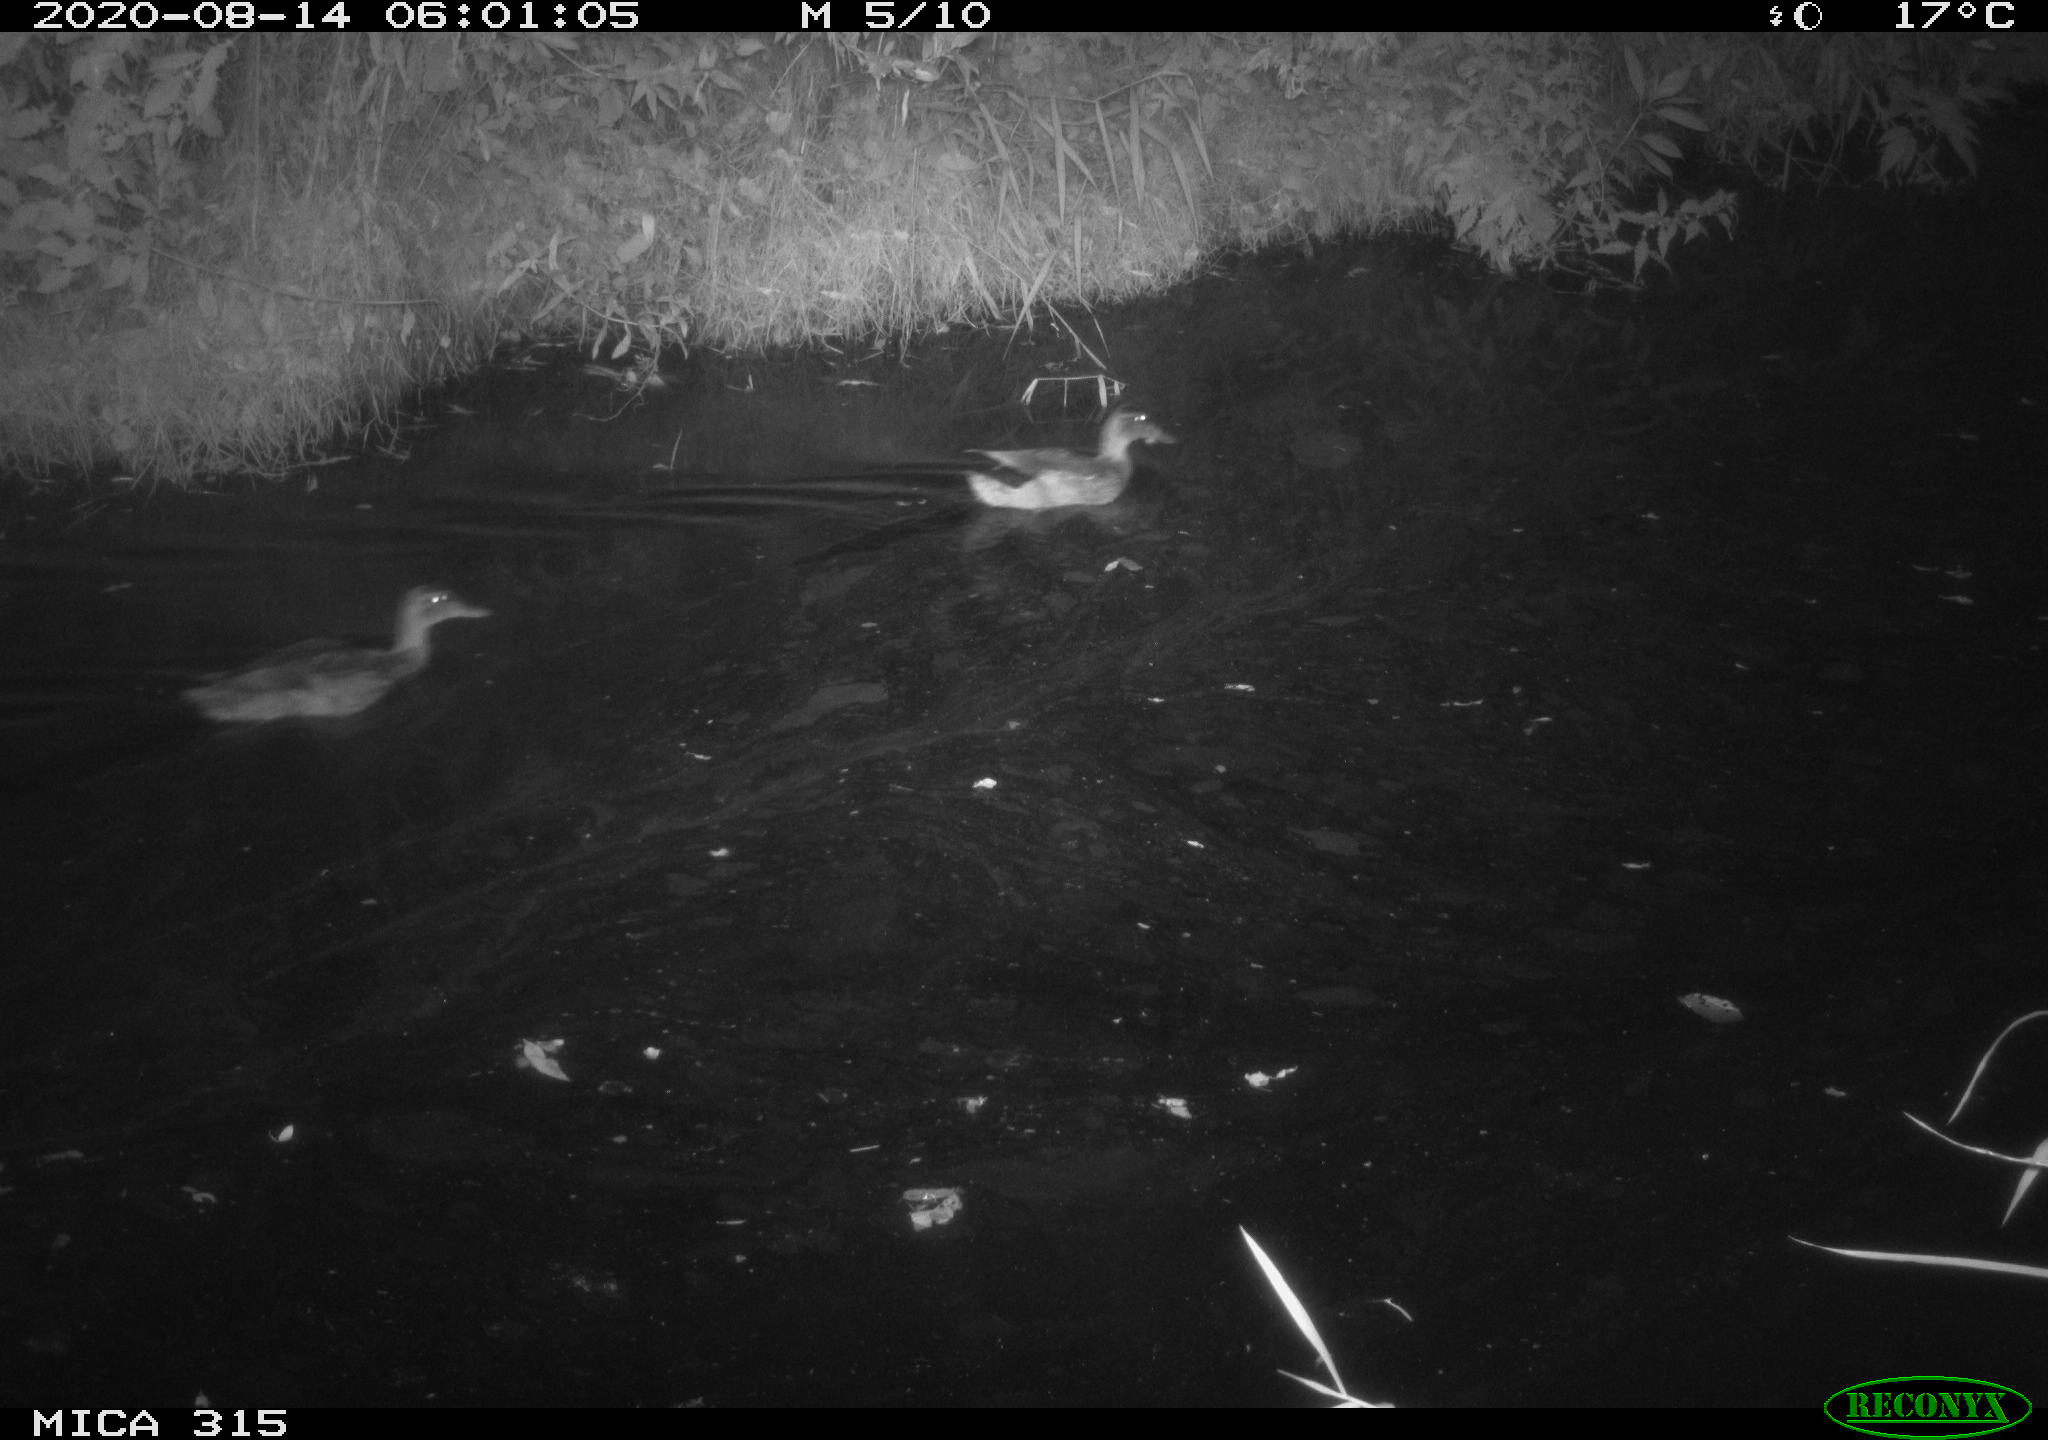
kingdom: Animalia
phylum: Chordata
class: Aves
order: Anseriformes
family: Anatidae
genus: Anas
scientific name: Anas platyrhynchos
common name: Mallard
